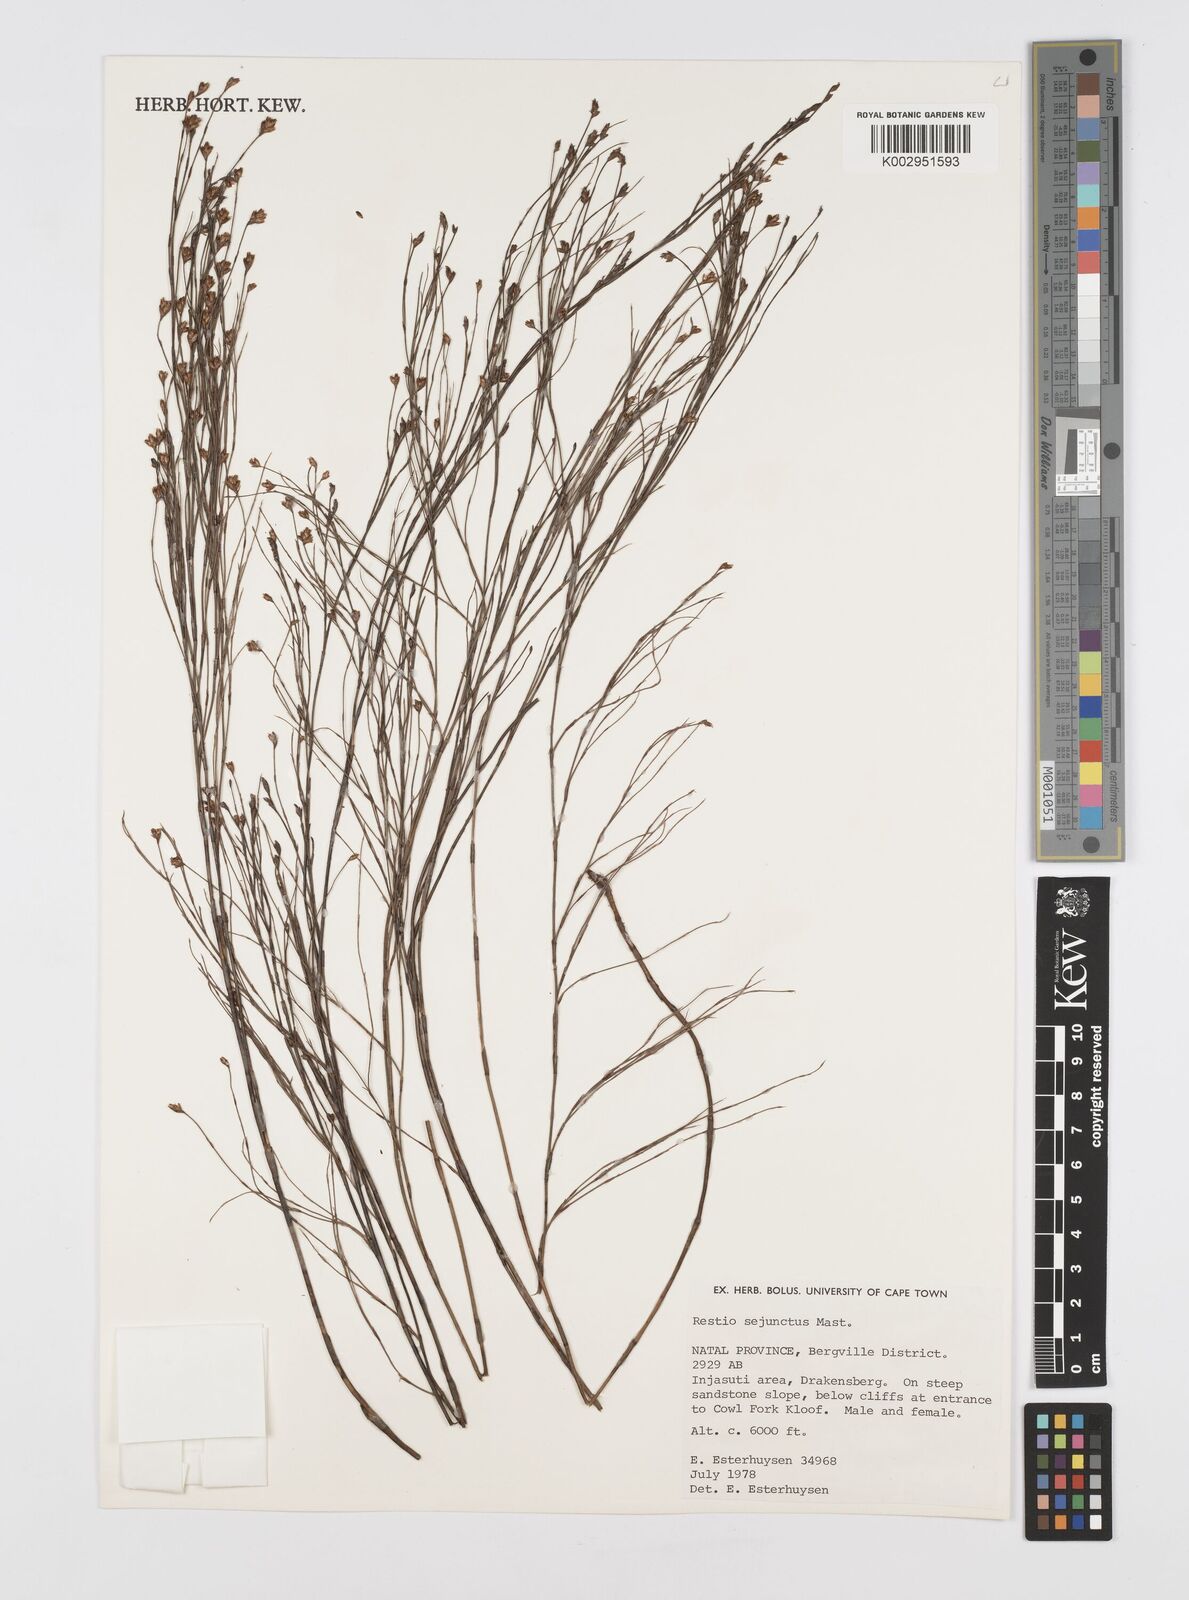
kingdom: Plantae
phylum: Tracheophyta
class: Liliopsida
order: Poales
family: Restionaceae
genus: Restio
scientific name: Restio sejunctus
